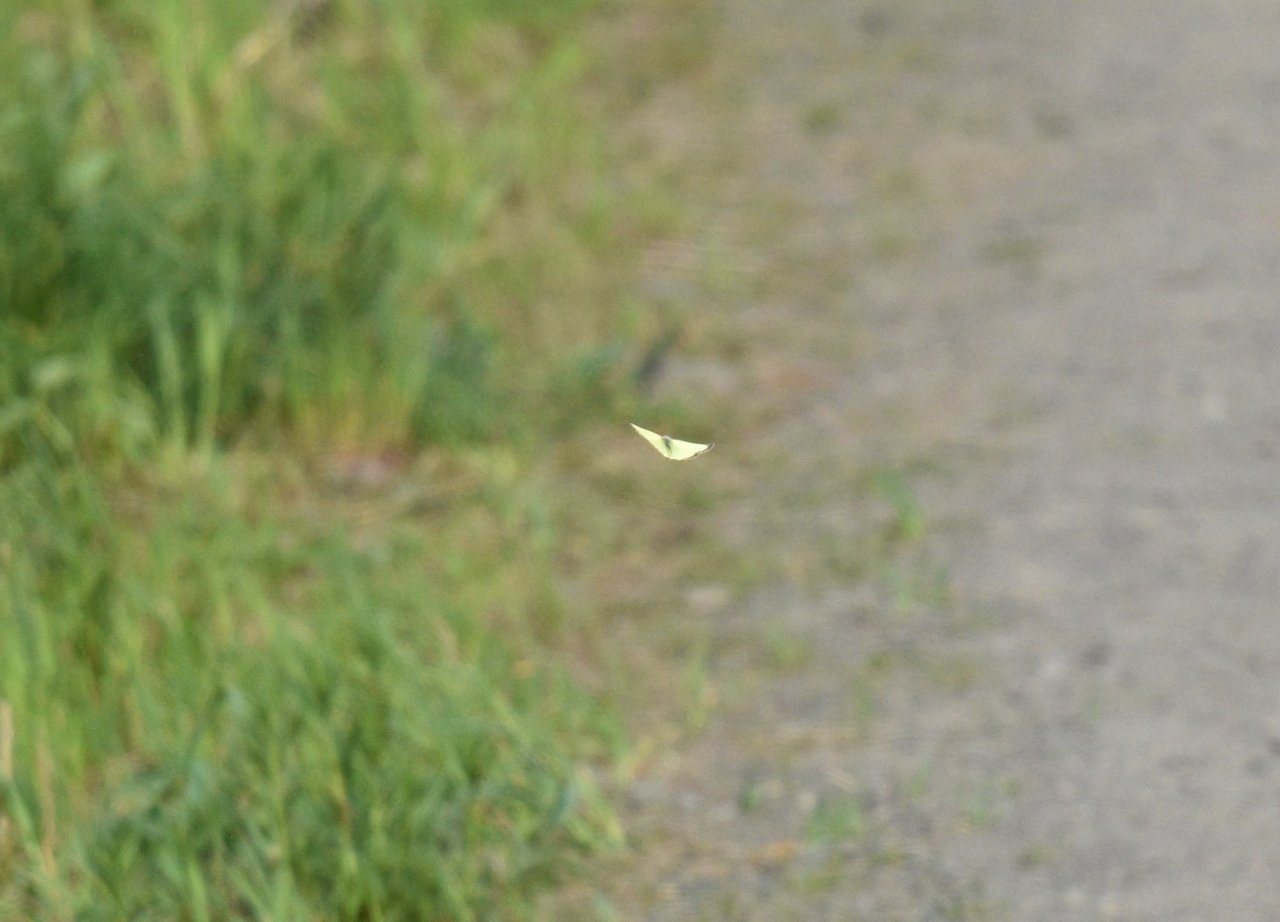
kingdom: Animalia
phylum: Arthropoda
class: Insecta
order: Lepidoptera
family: Pieridae
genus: Colias
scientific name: Colias philodice
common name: Clouded Sulphur
